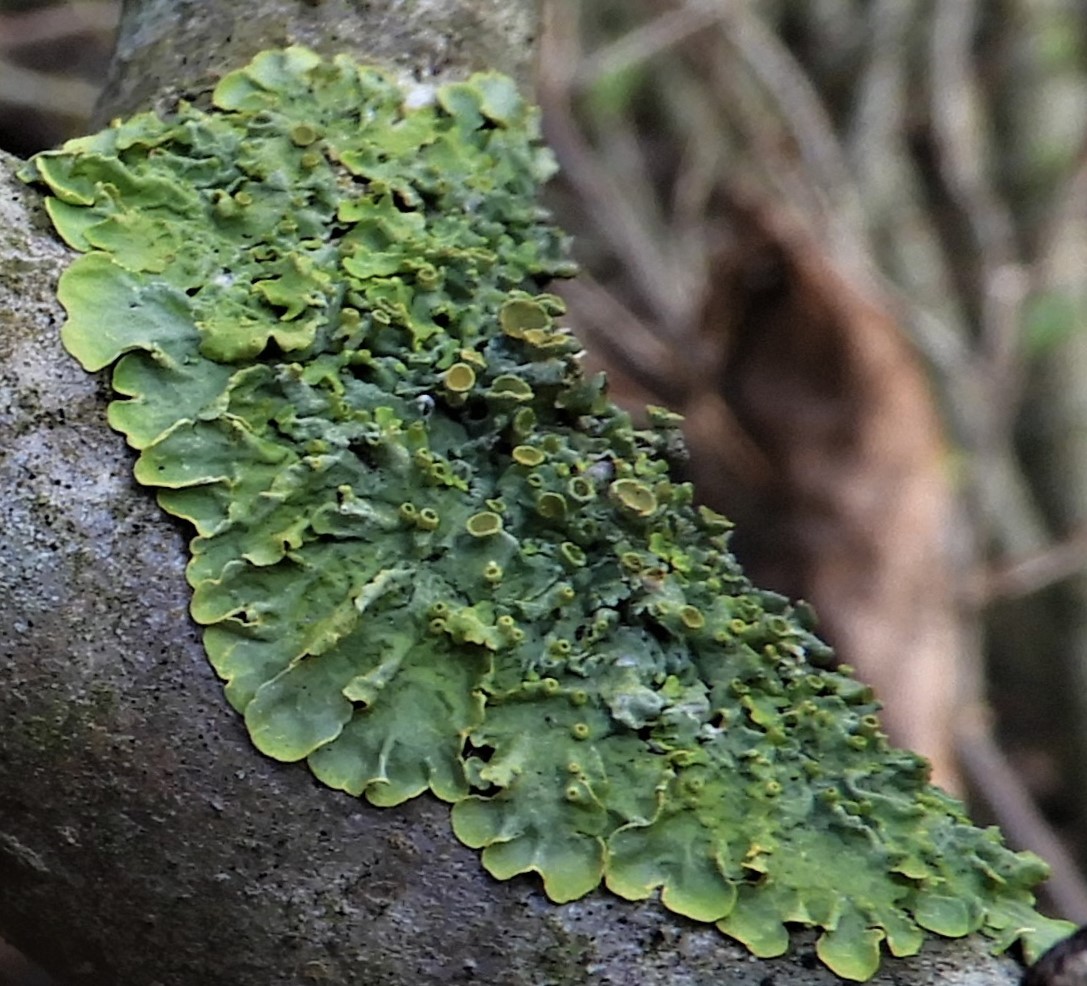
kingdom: Fungi
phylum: Ascomycota
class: Lecanoromycetes
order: Teloschistales
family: Teloschistaceae
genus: Xanthoria
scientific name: Xanthoria parietina
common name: almindelig væggelav
